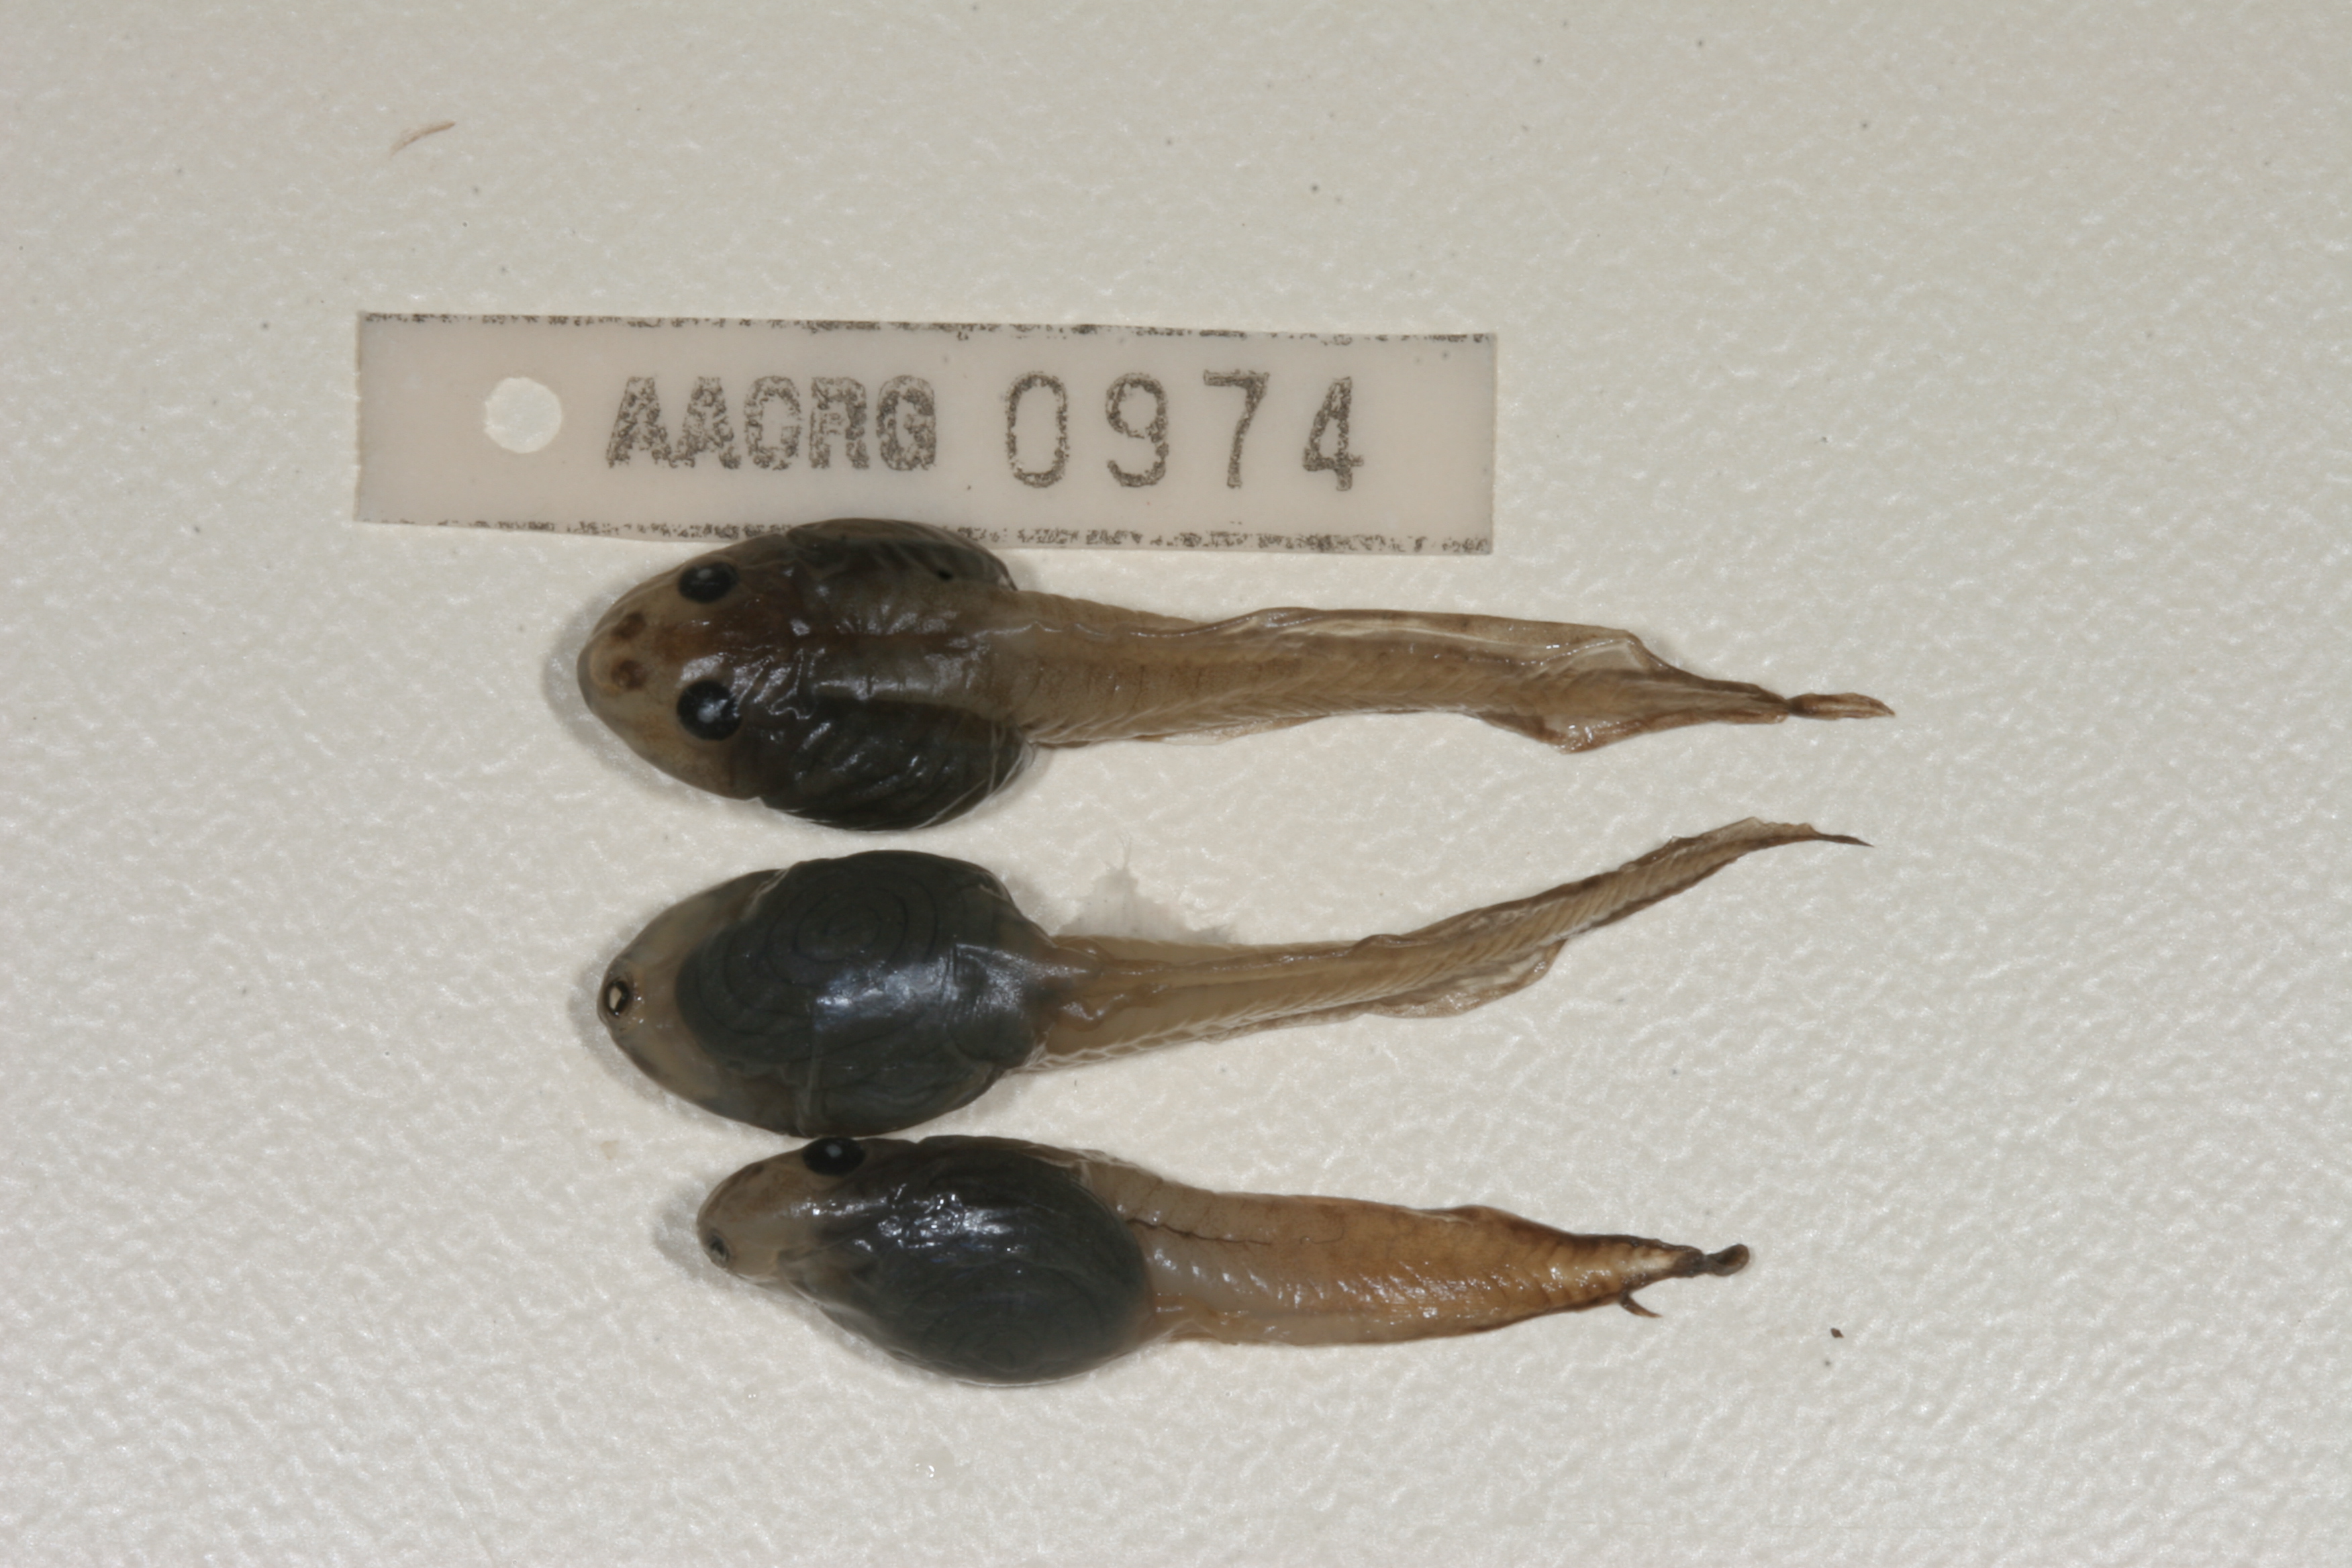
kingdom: Animalia
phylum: Chordata
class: Amphibia
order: Anura
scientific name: Anura
